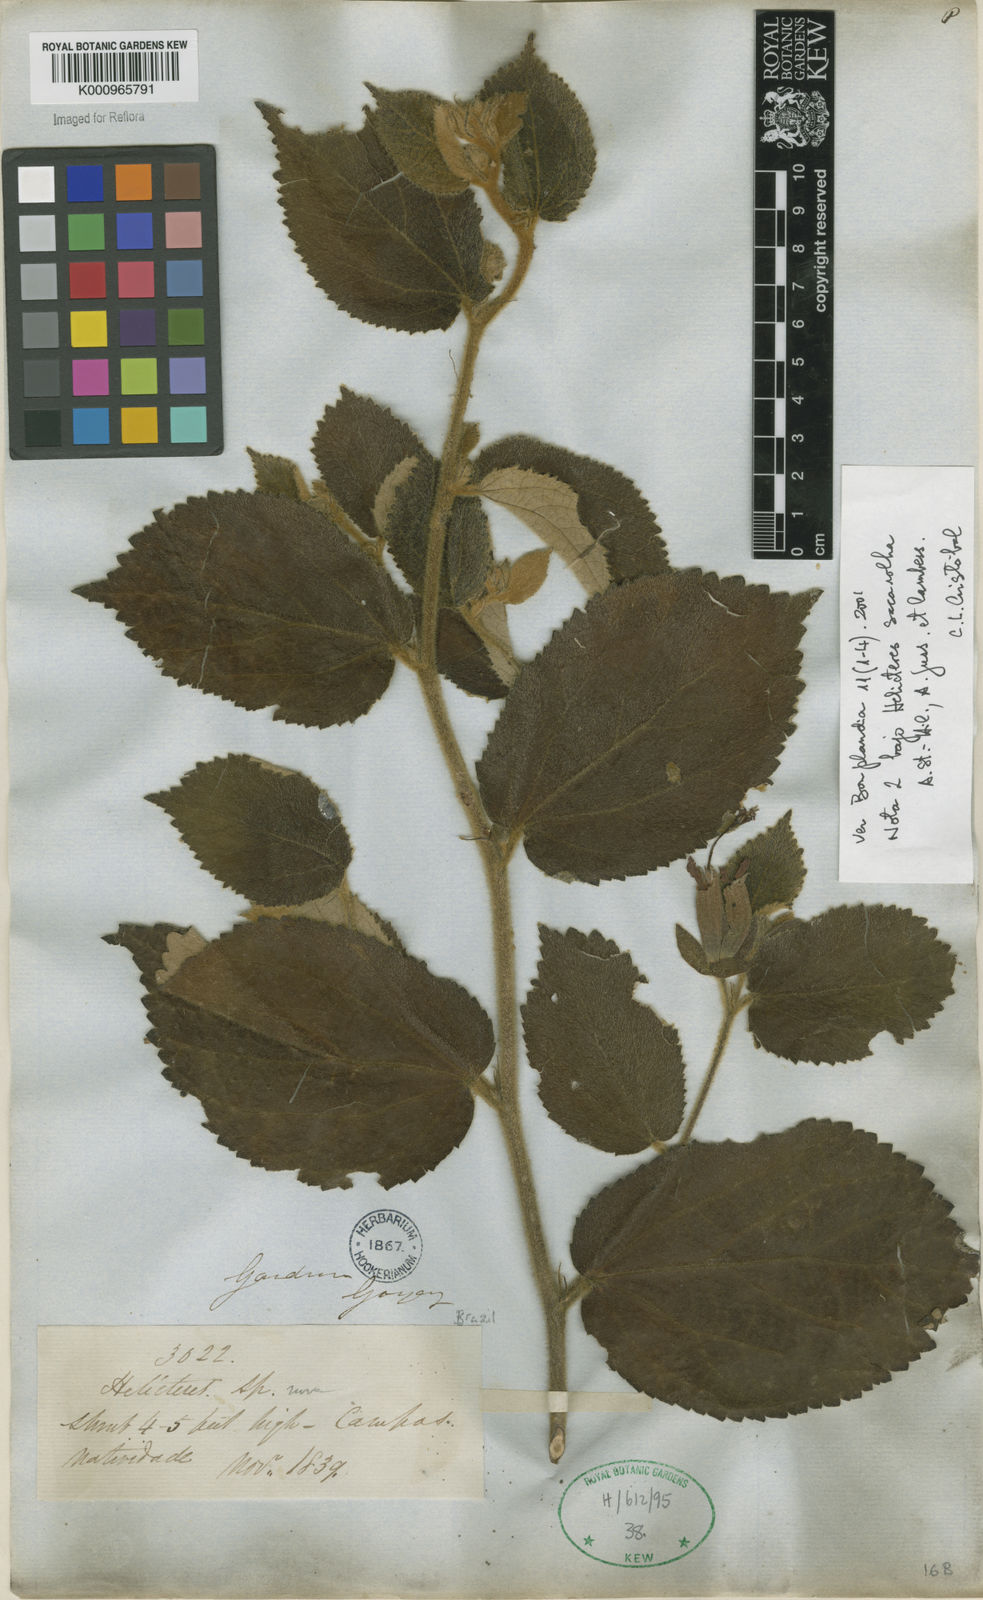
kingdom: Plantae
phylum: Tracheophyta
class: Magnoliopsida
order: Malvales
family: Malvaceae
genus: Helicteres
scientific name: Helicteres
